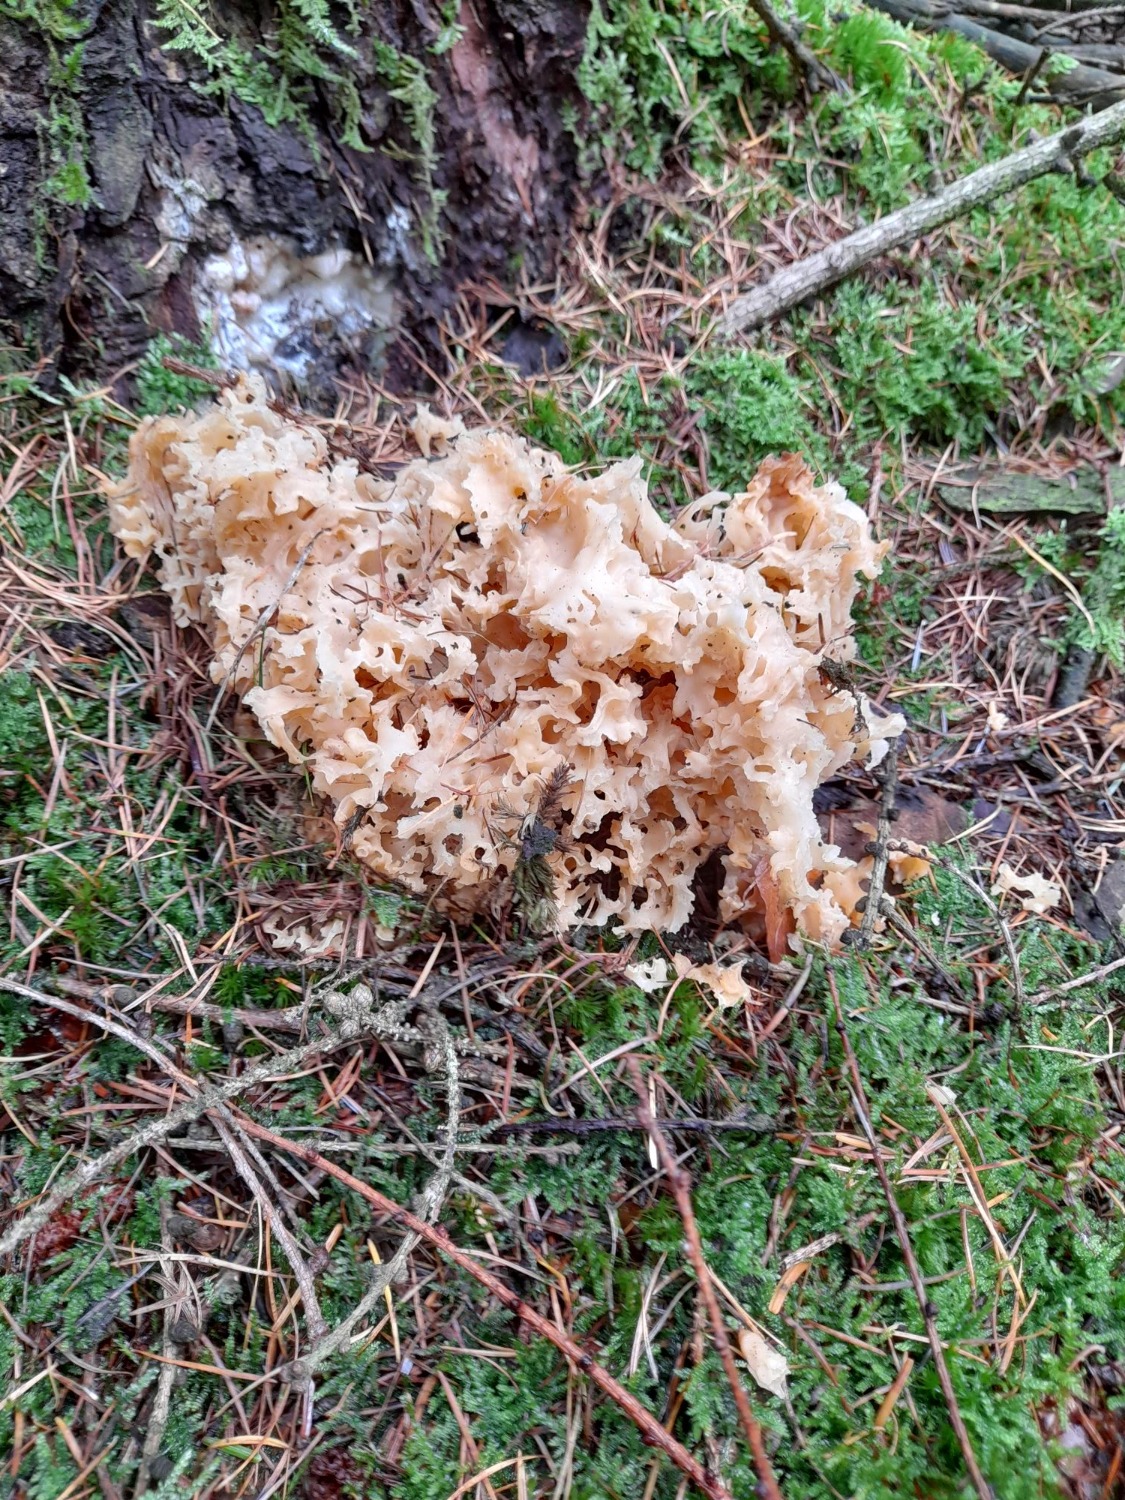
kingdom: Fungi
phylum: Basidiomycota
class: Agaricomycetes
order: Polyporales
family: Sparassidaceae
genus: Sparassis
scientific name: Sparassis crispa
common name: Kruset blomkålssvamp
